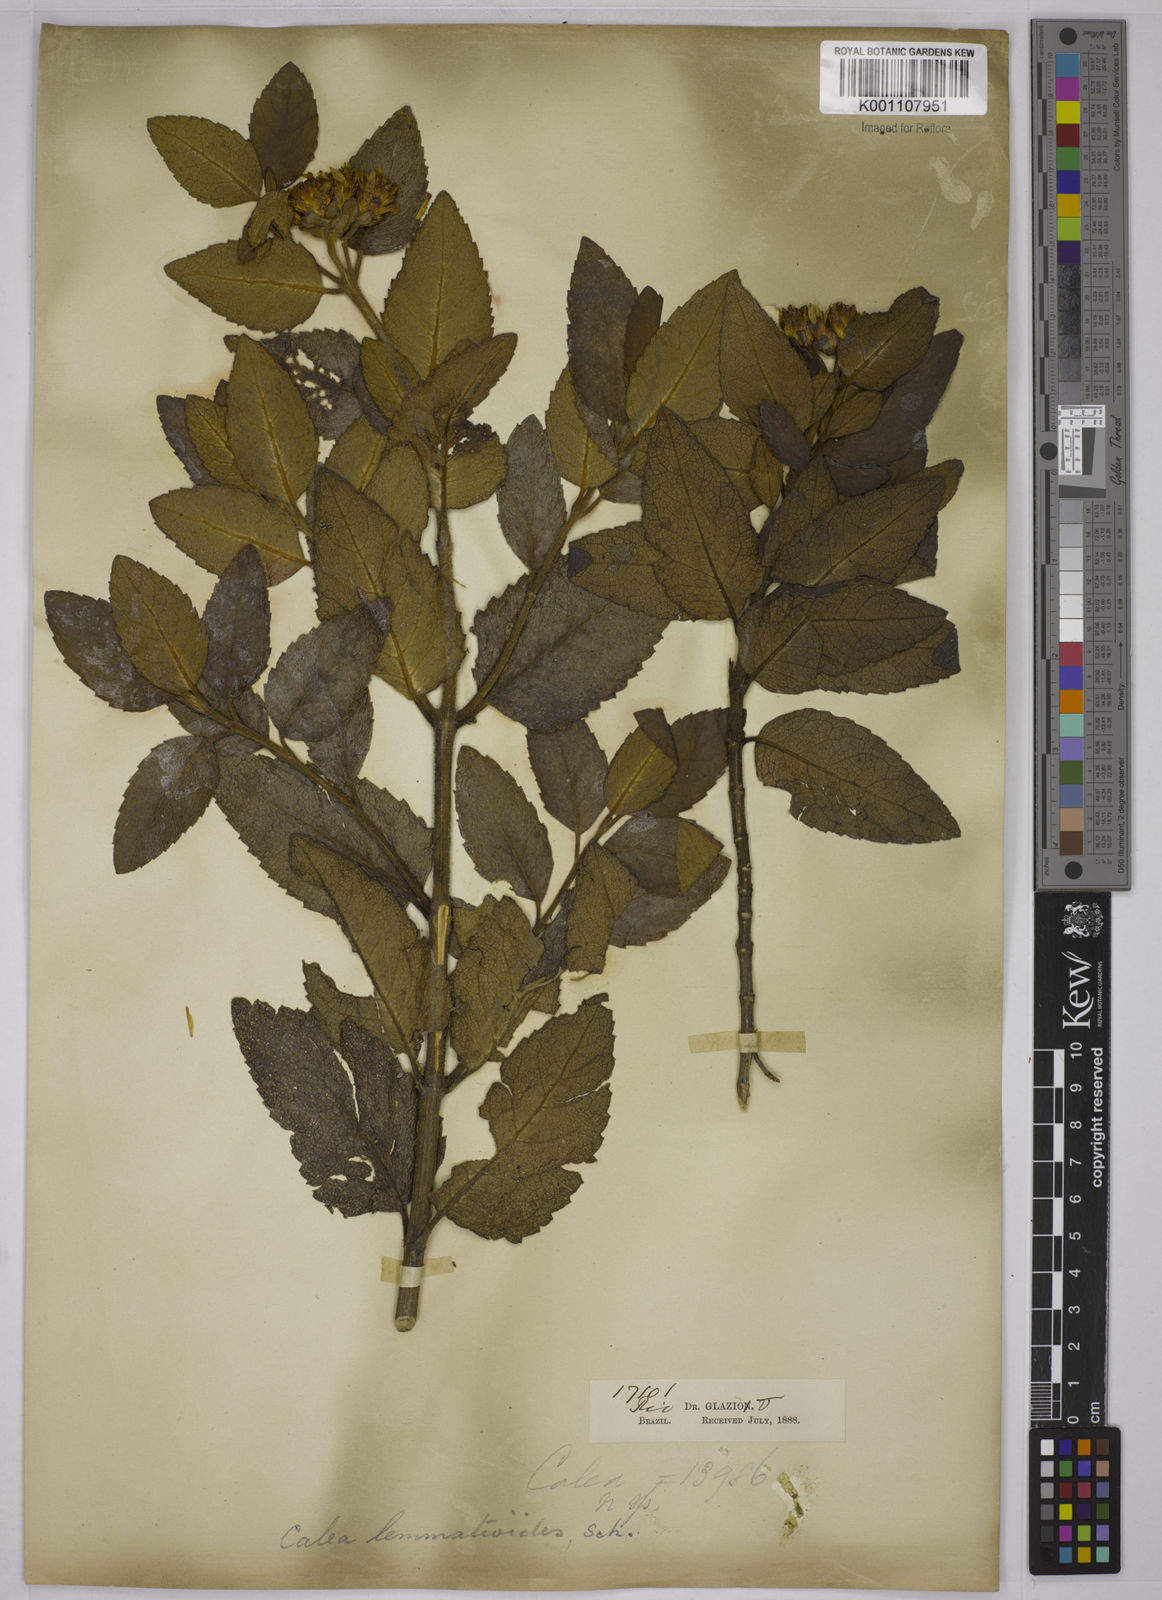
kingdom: Plantae
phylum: Tracheophyta
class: Magnoliopsida
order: Asterales
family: Asteraceae
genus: Calea
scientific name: Calea lemmatioides
